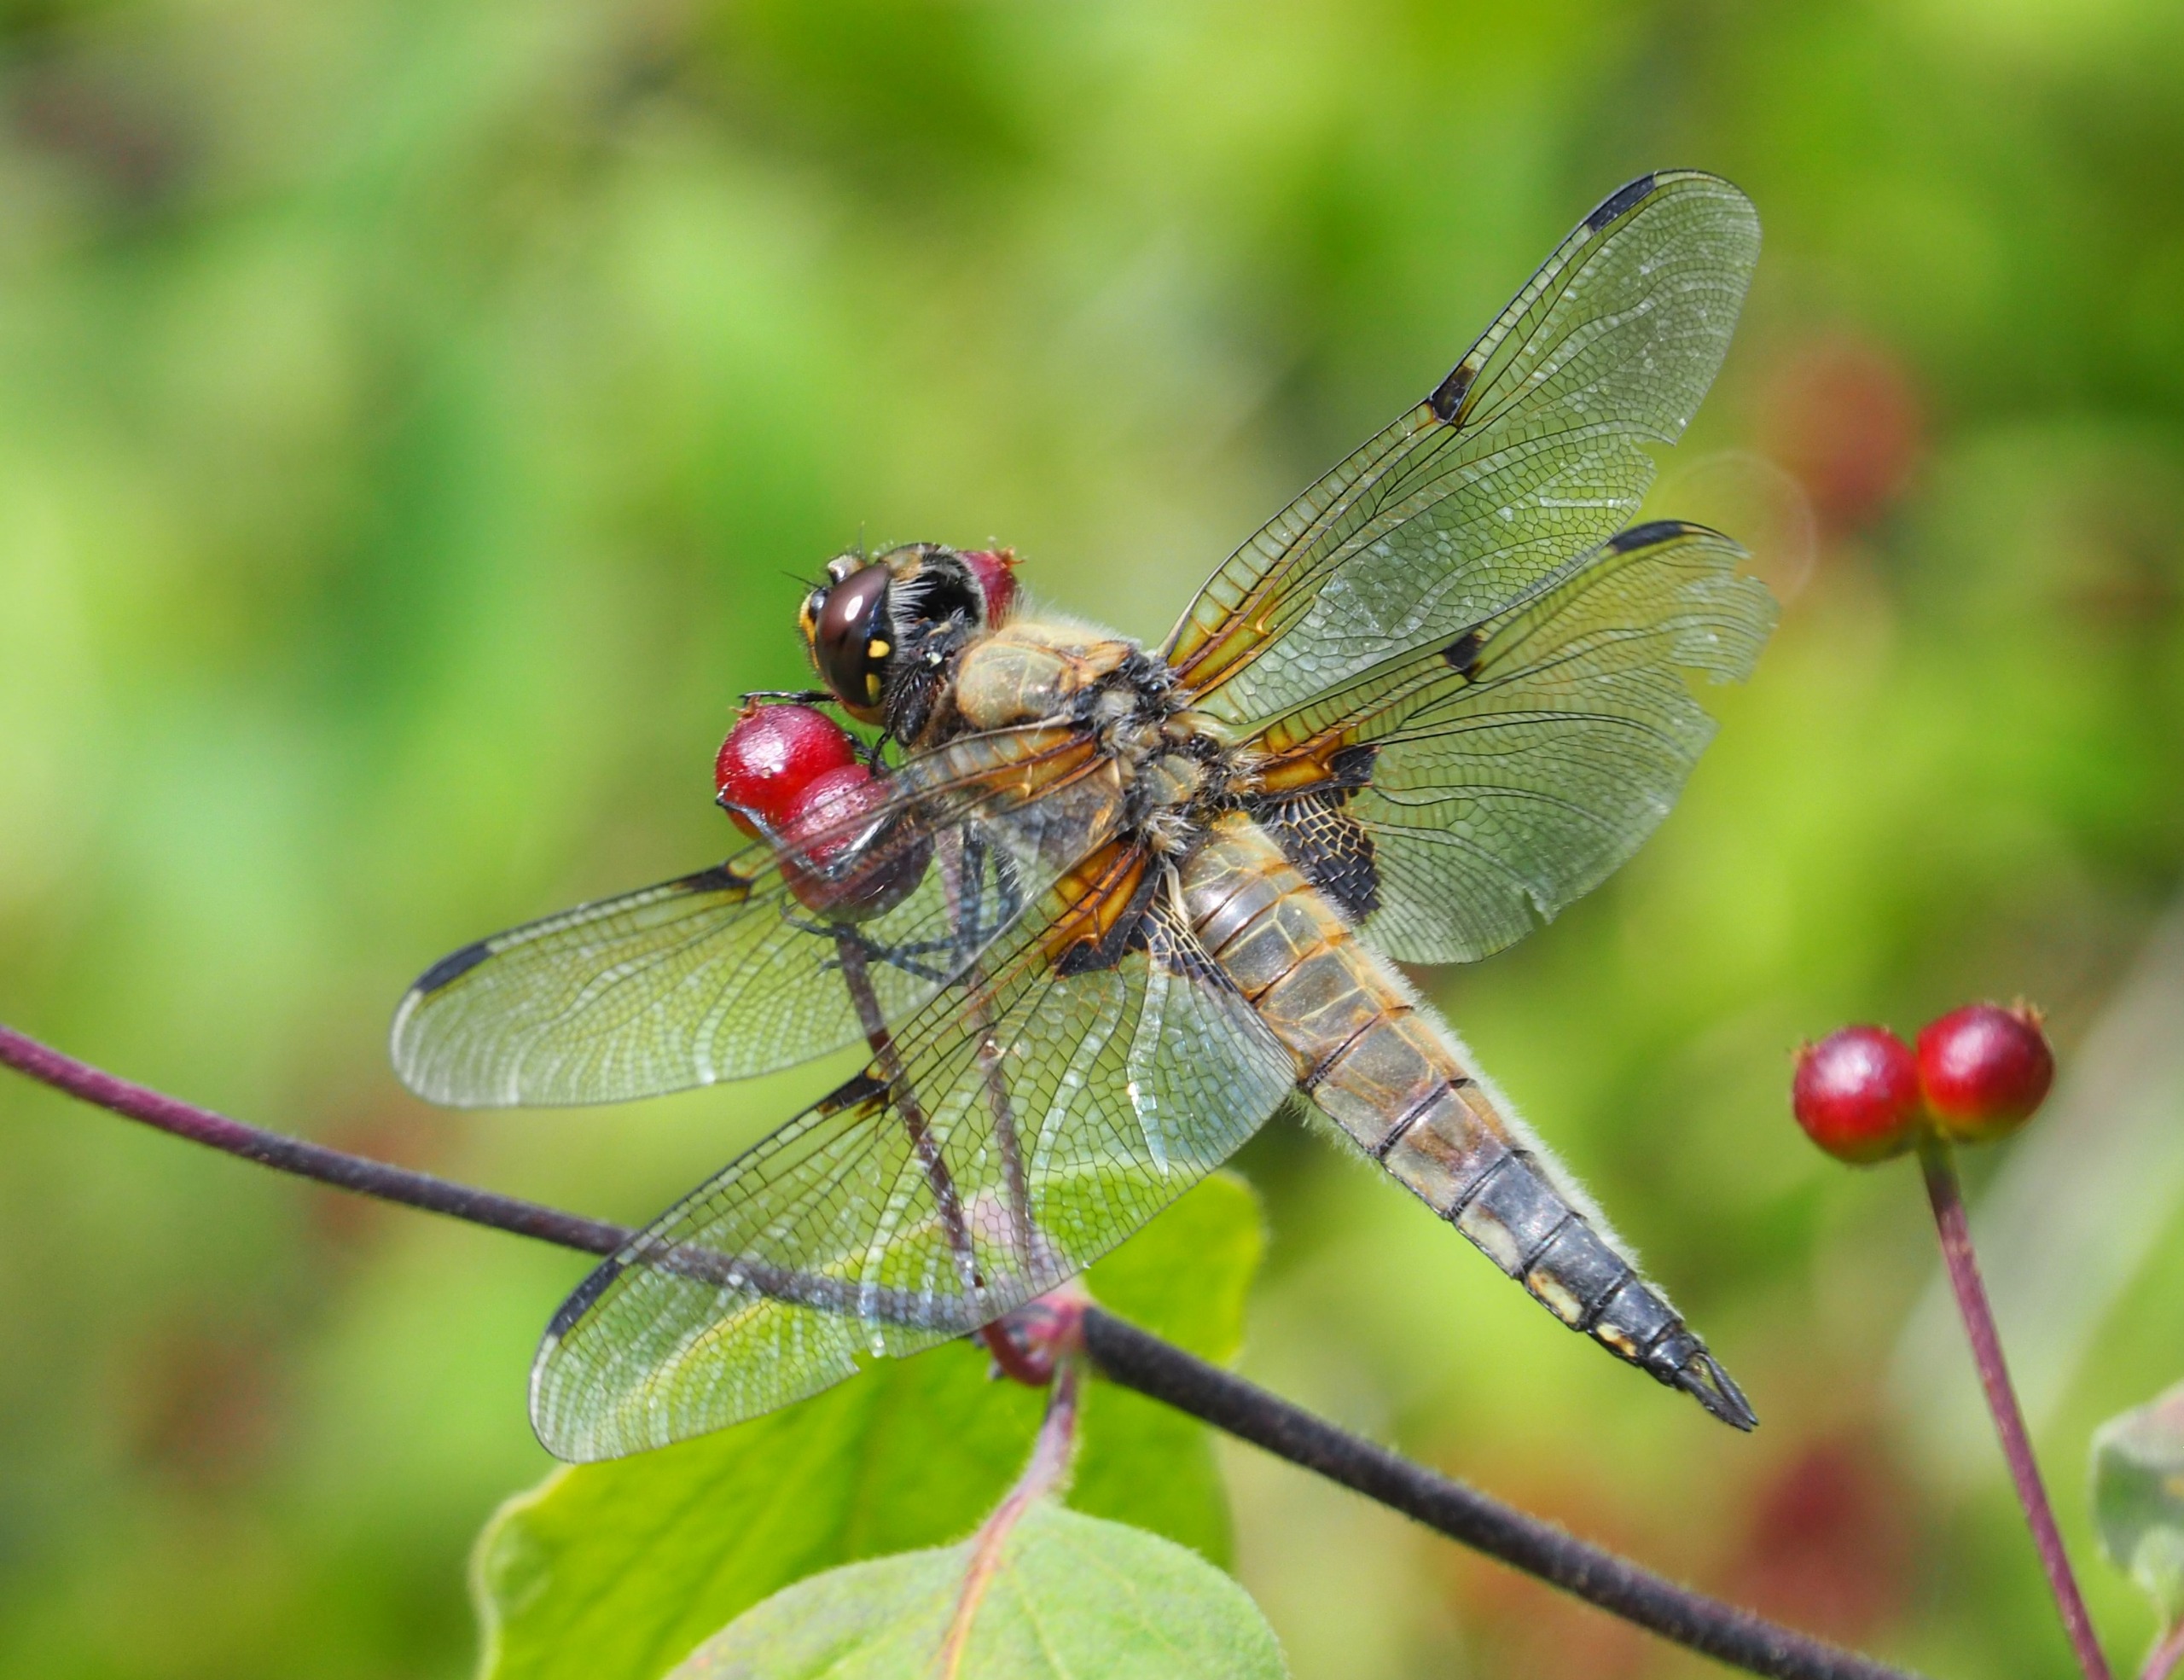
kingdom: Animalia
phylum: Arthropoda
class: Insecta
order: Odonata
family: Libellulidae
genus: Libellula
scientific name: Libellula quadrimaculata
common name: Fireplettet libel
